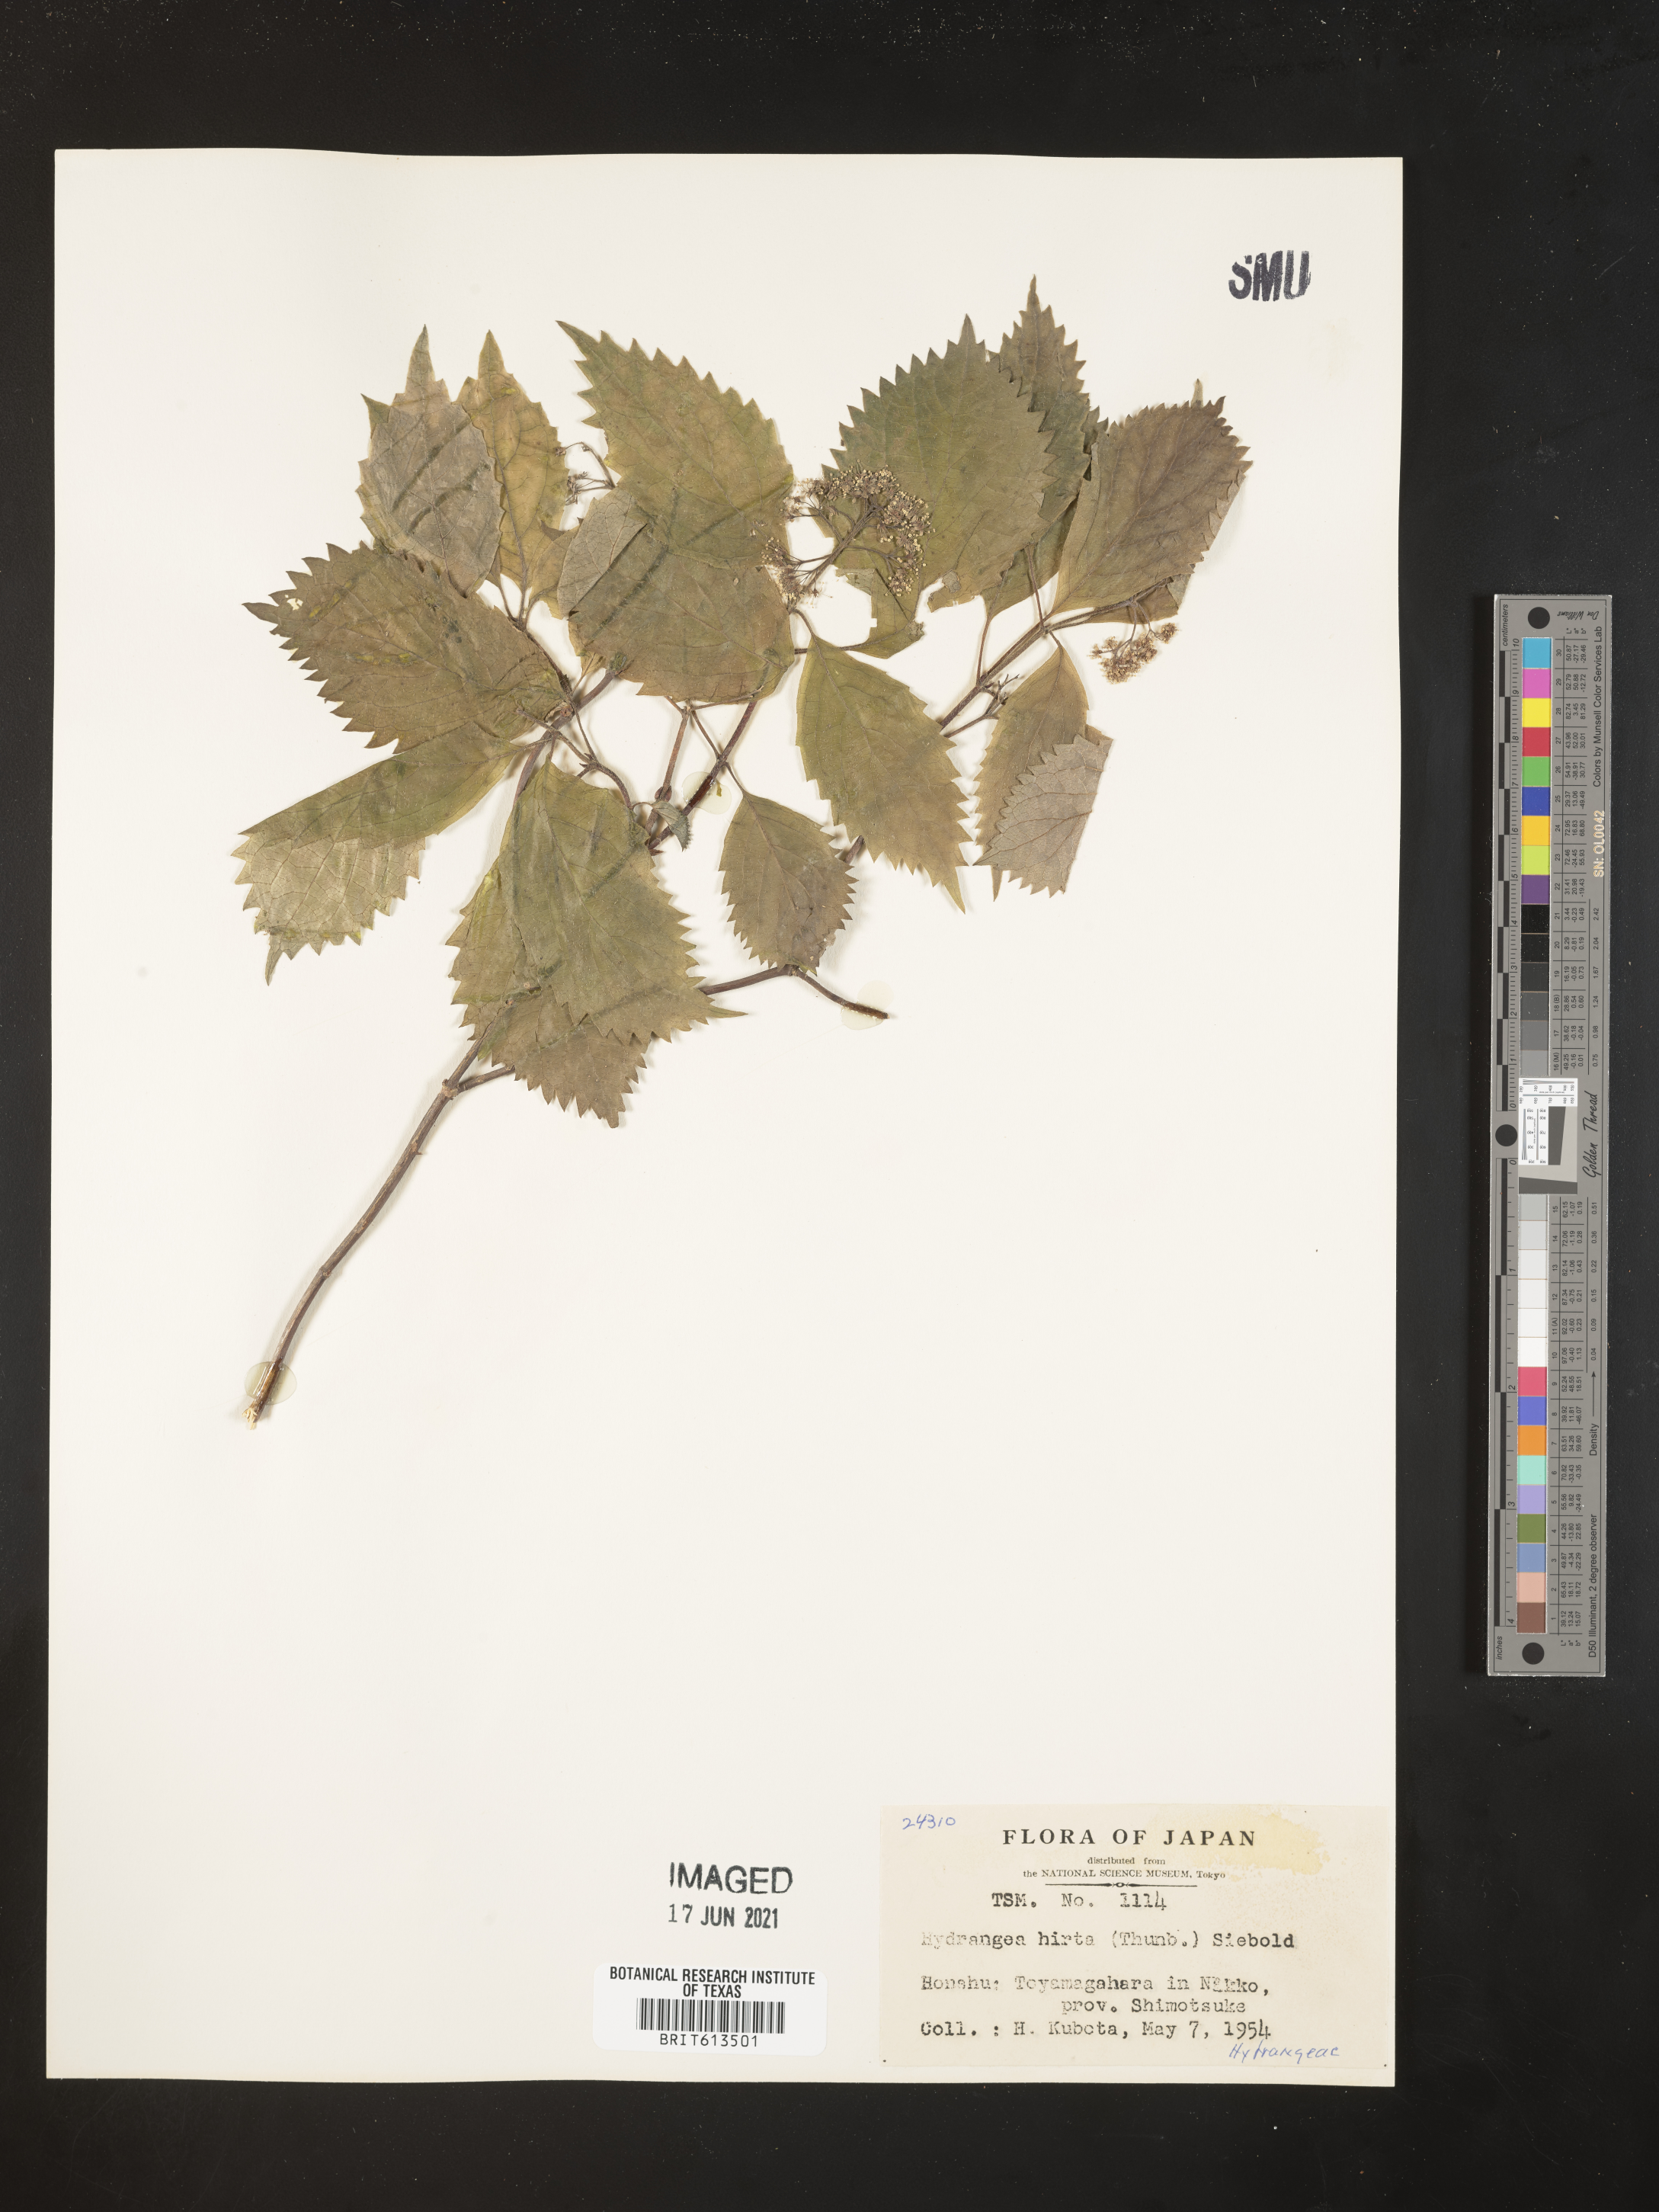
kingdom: Plantae
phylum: Tracheophyta
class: Magnoliopsida
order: Cornales
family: Hydrangeaceae
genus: Hydrangea
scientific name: Hydrangea hirta
